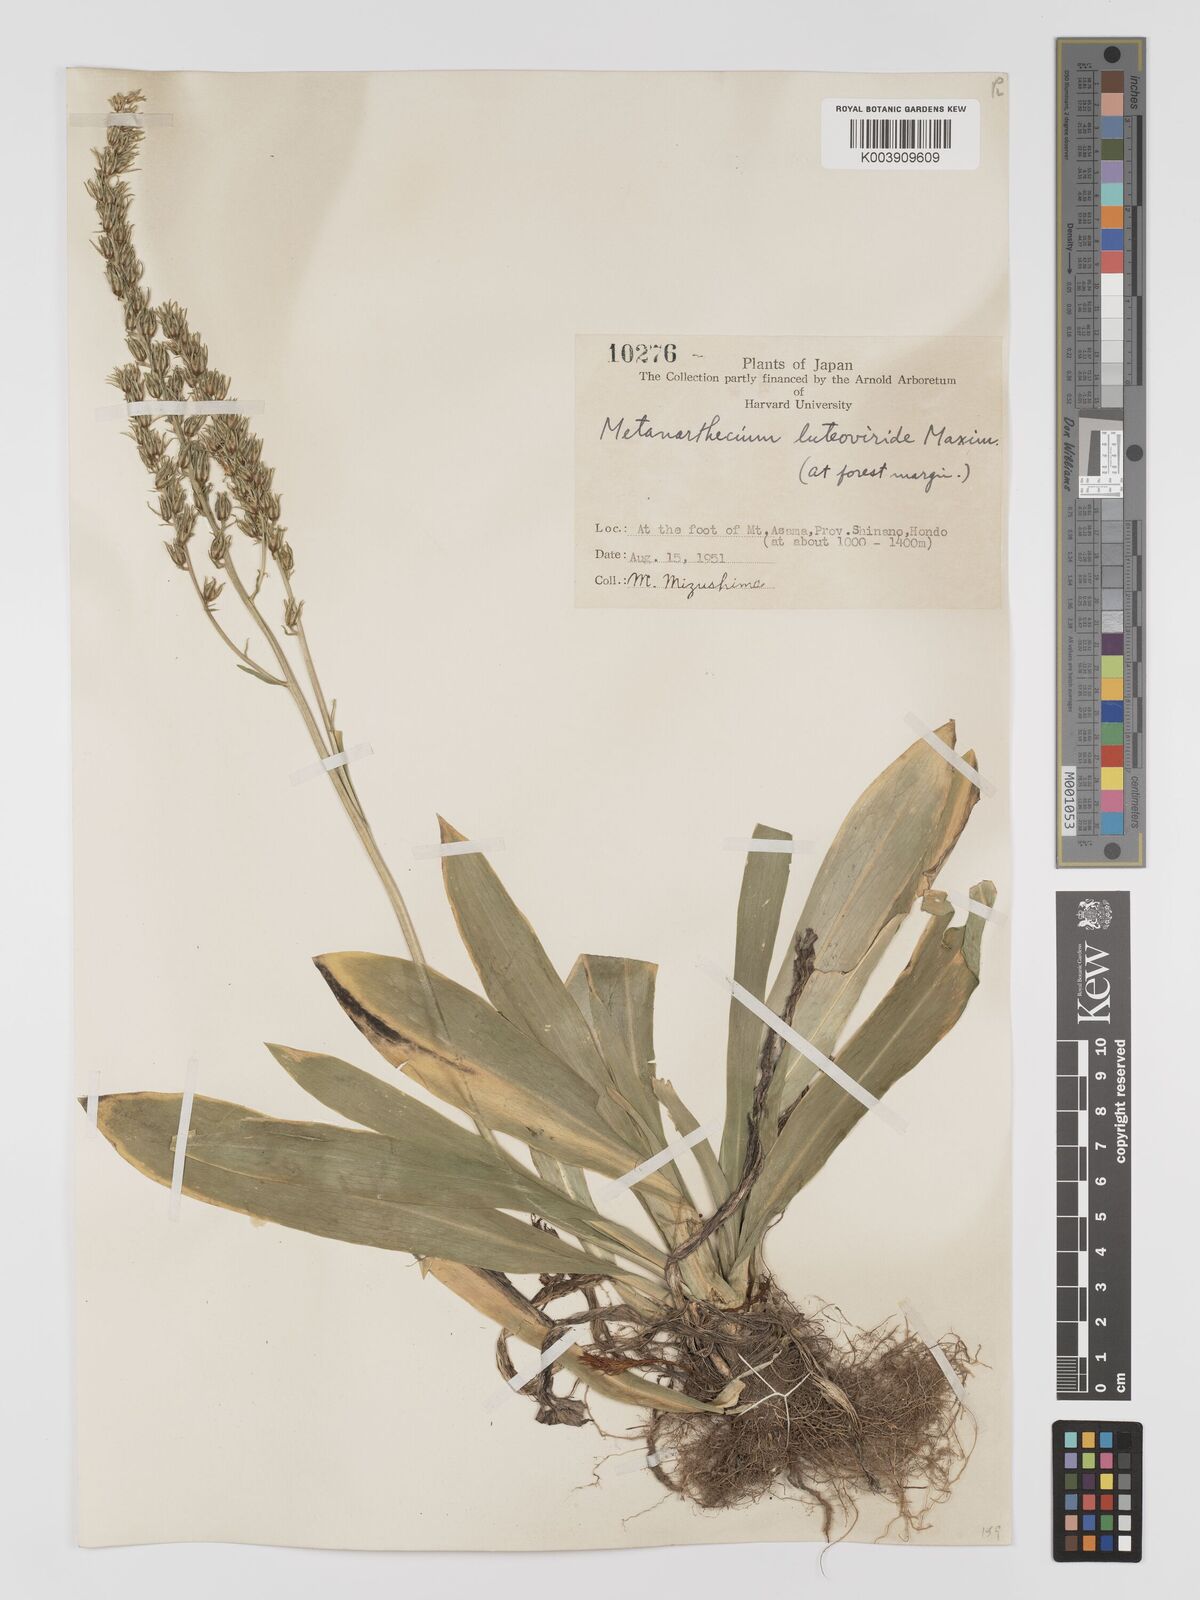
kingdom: Plantae
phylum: Tracheophyta
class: Liliopsida
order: Dioscoreales
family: Nartheciaceae
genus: Metanarthecium
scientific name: Metanarthecium luteoviride
